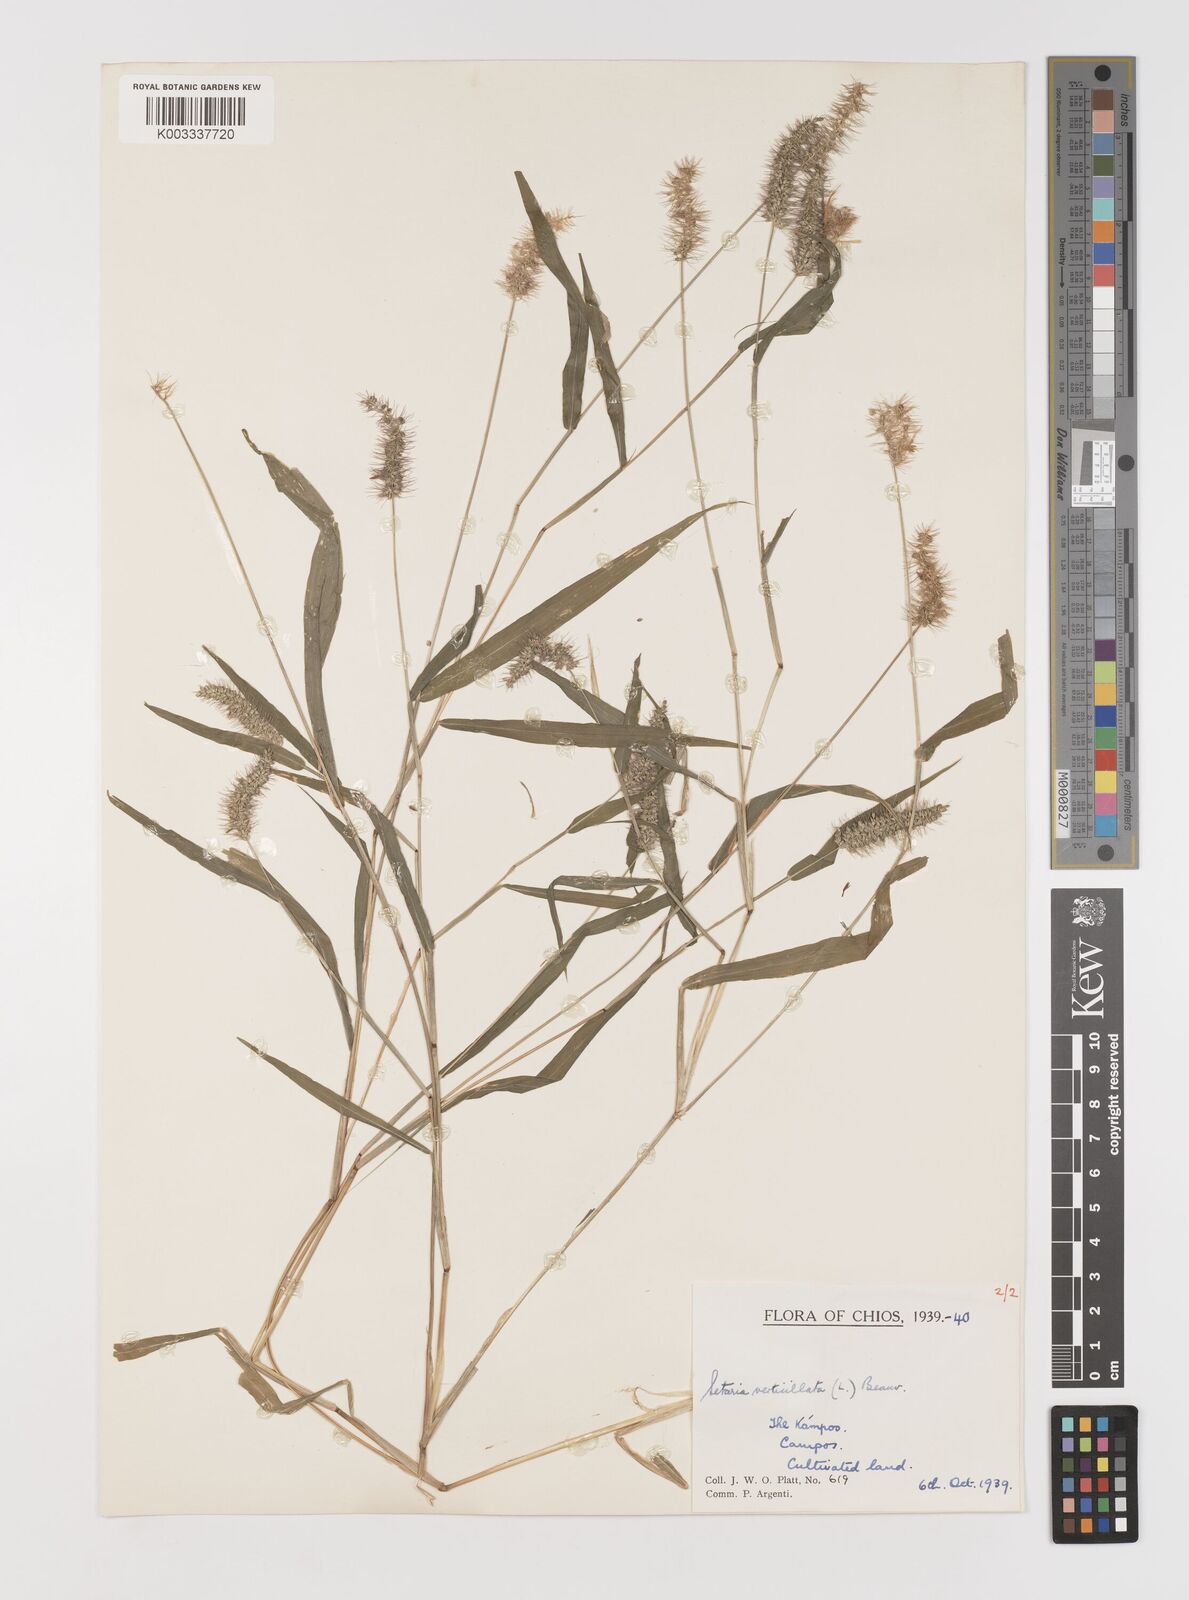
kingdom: Plantae
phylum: Tracheophyta
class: Liliopsida
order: Poales
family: Poaceae
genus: Setaria
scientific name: Setaria verticillata
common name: Hooked bristlegrass
